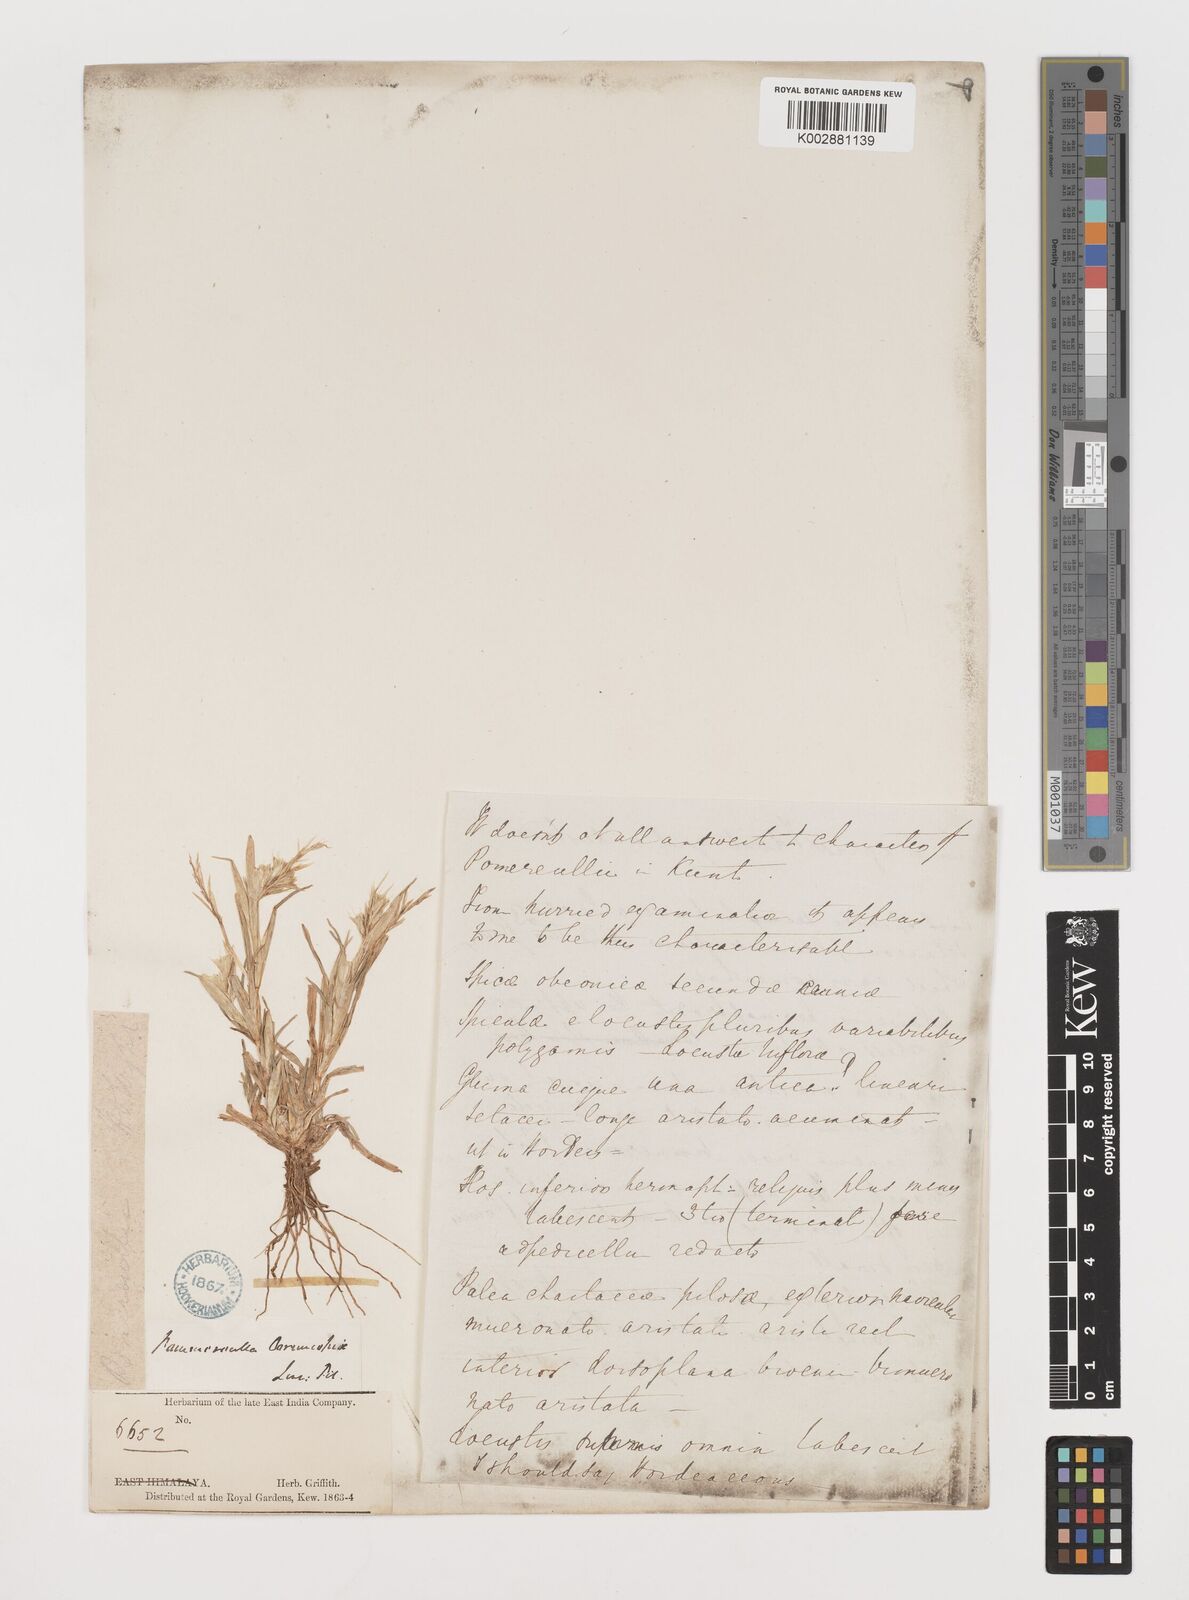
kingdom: Plantae
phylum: Tracheophyta
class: Liliopsida
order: Poales
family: Poaceae
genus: Pommereulla
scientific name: Pommereulla cornucopiae
